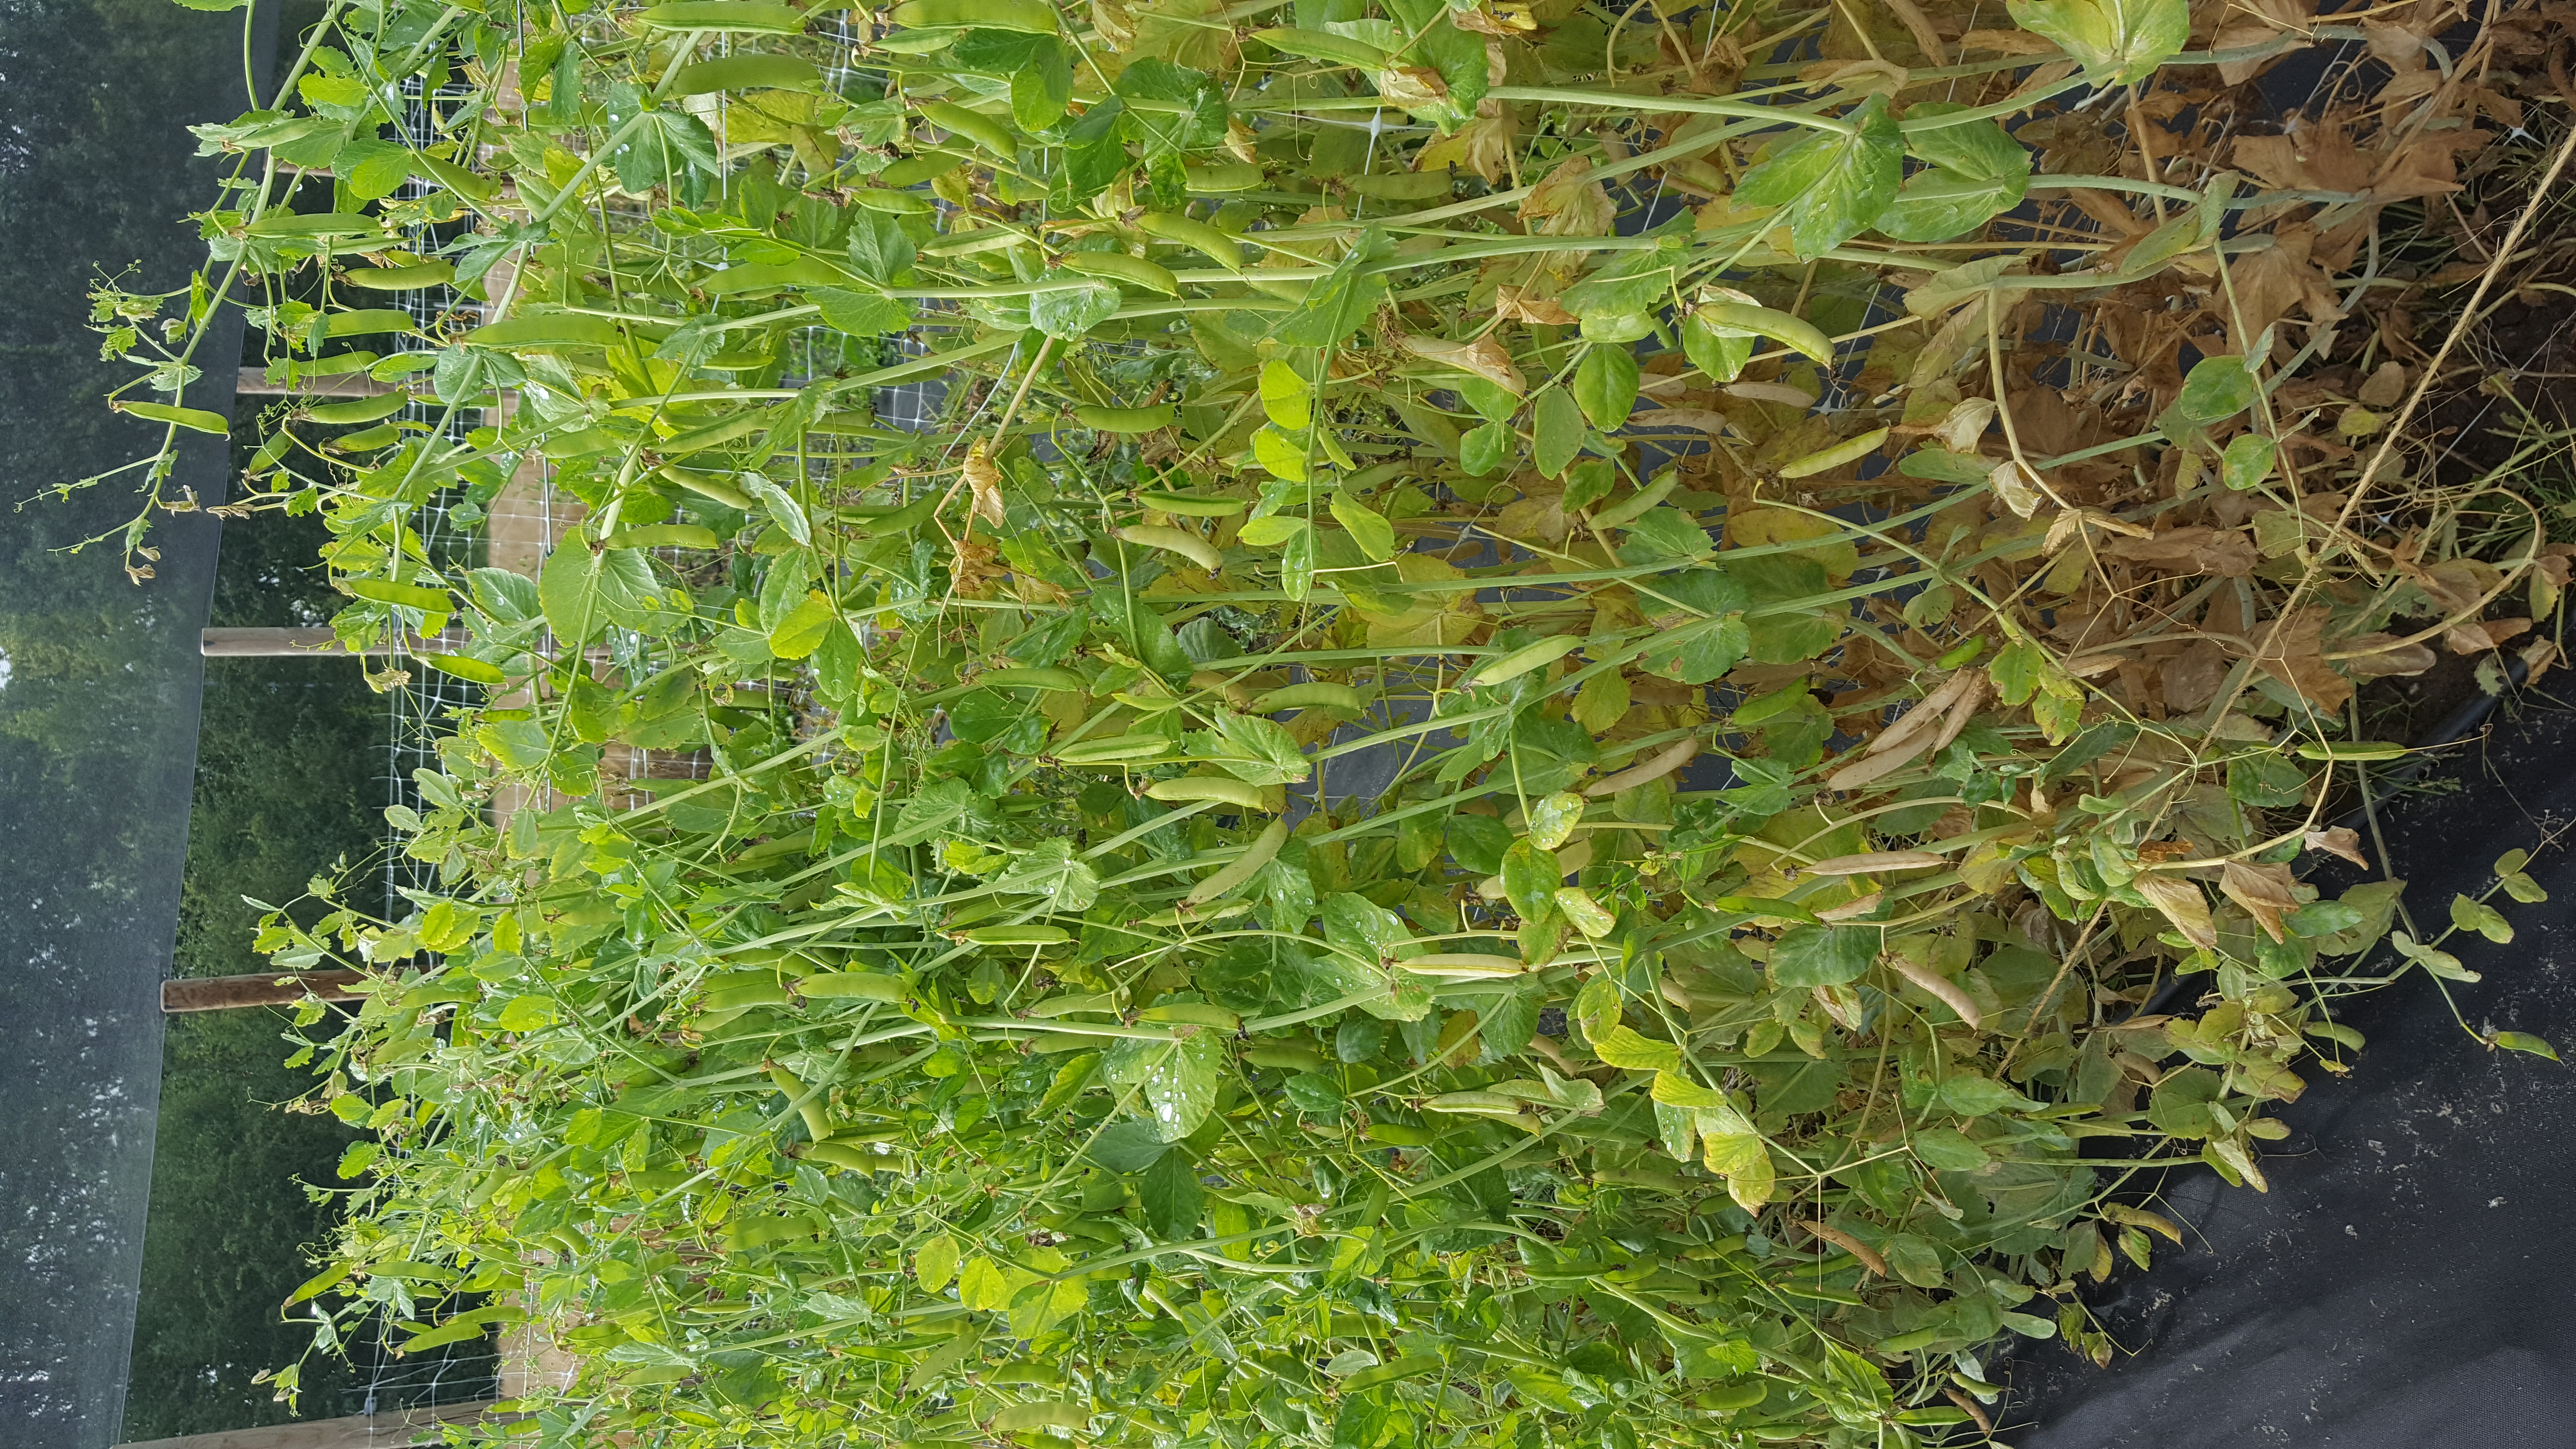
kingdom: Plantae
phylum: Tracheophyta
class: Magnoliopsida
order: Fabales
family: Fabaceae
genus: Lathyrus
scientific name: Lathyrus oleraceus
